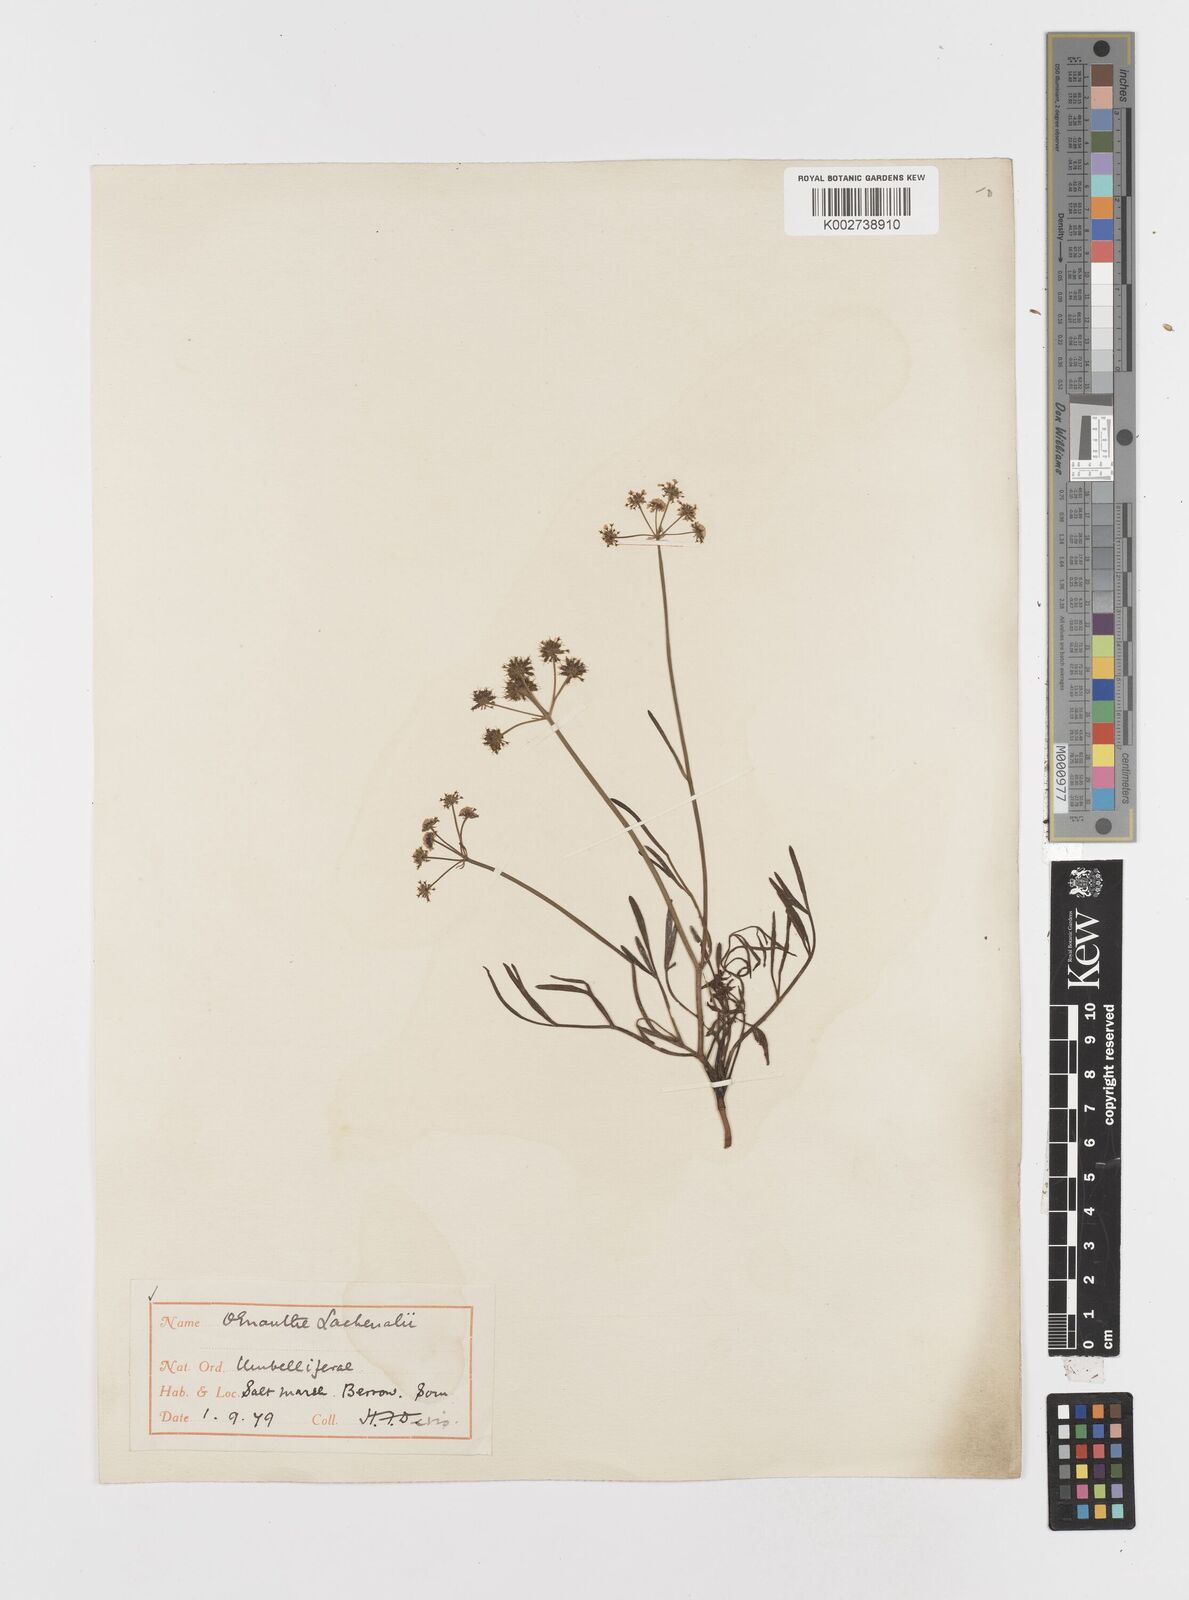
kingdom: Plantae
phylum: Tracheophyta
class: Magnoliopsida
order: Apiales
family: Apiaceae
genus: Oenanthe
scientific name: Oenanthe lachenalii
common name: Parsley water-dropwort
